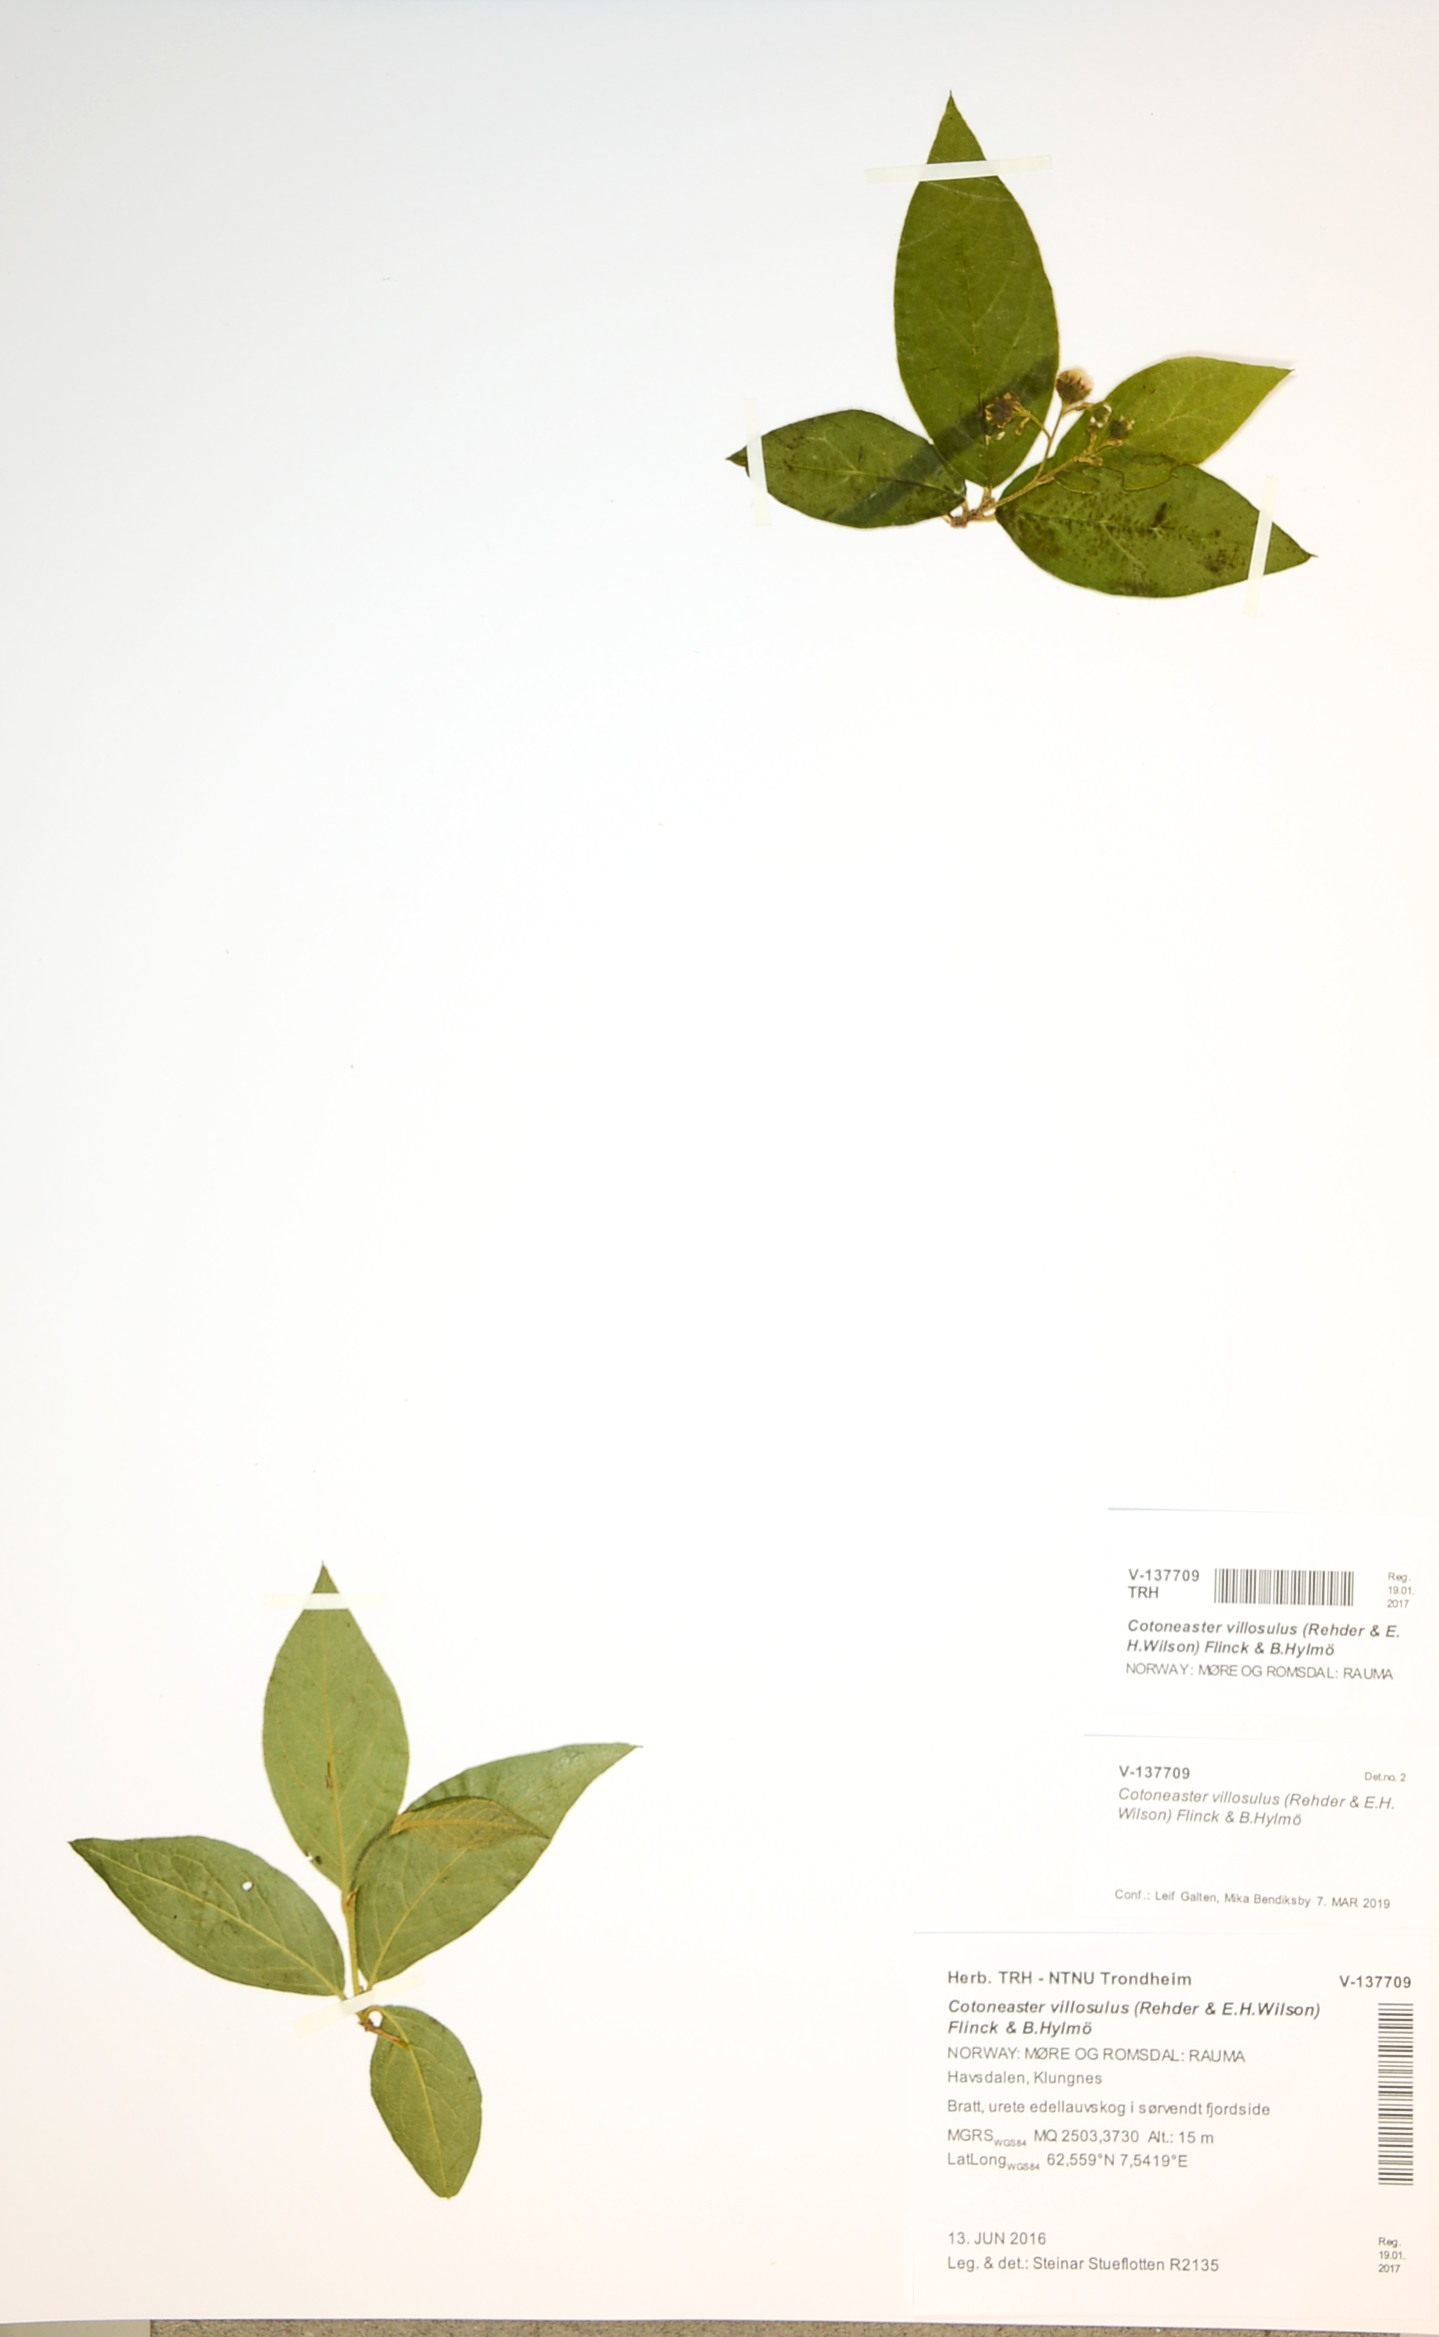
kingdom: Plantae
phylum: Tracheophyta
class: Magnoliopsida
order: Rosales
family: Rosaceae
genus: Cotoneaster
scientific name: Cotoneaster ambiguus
